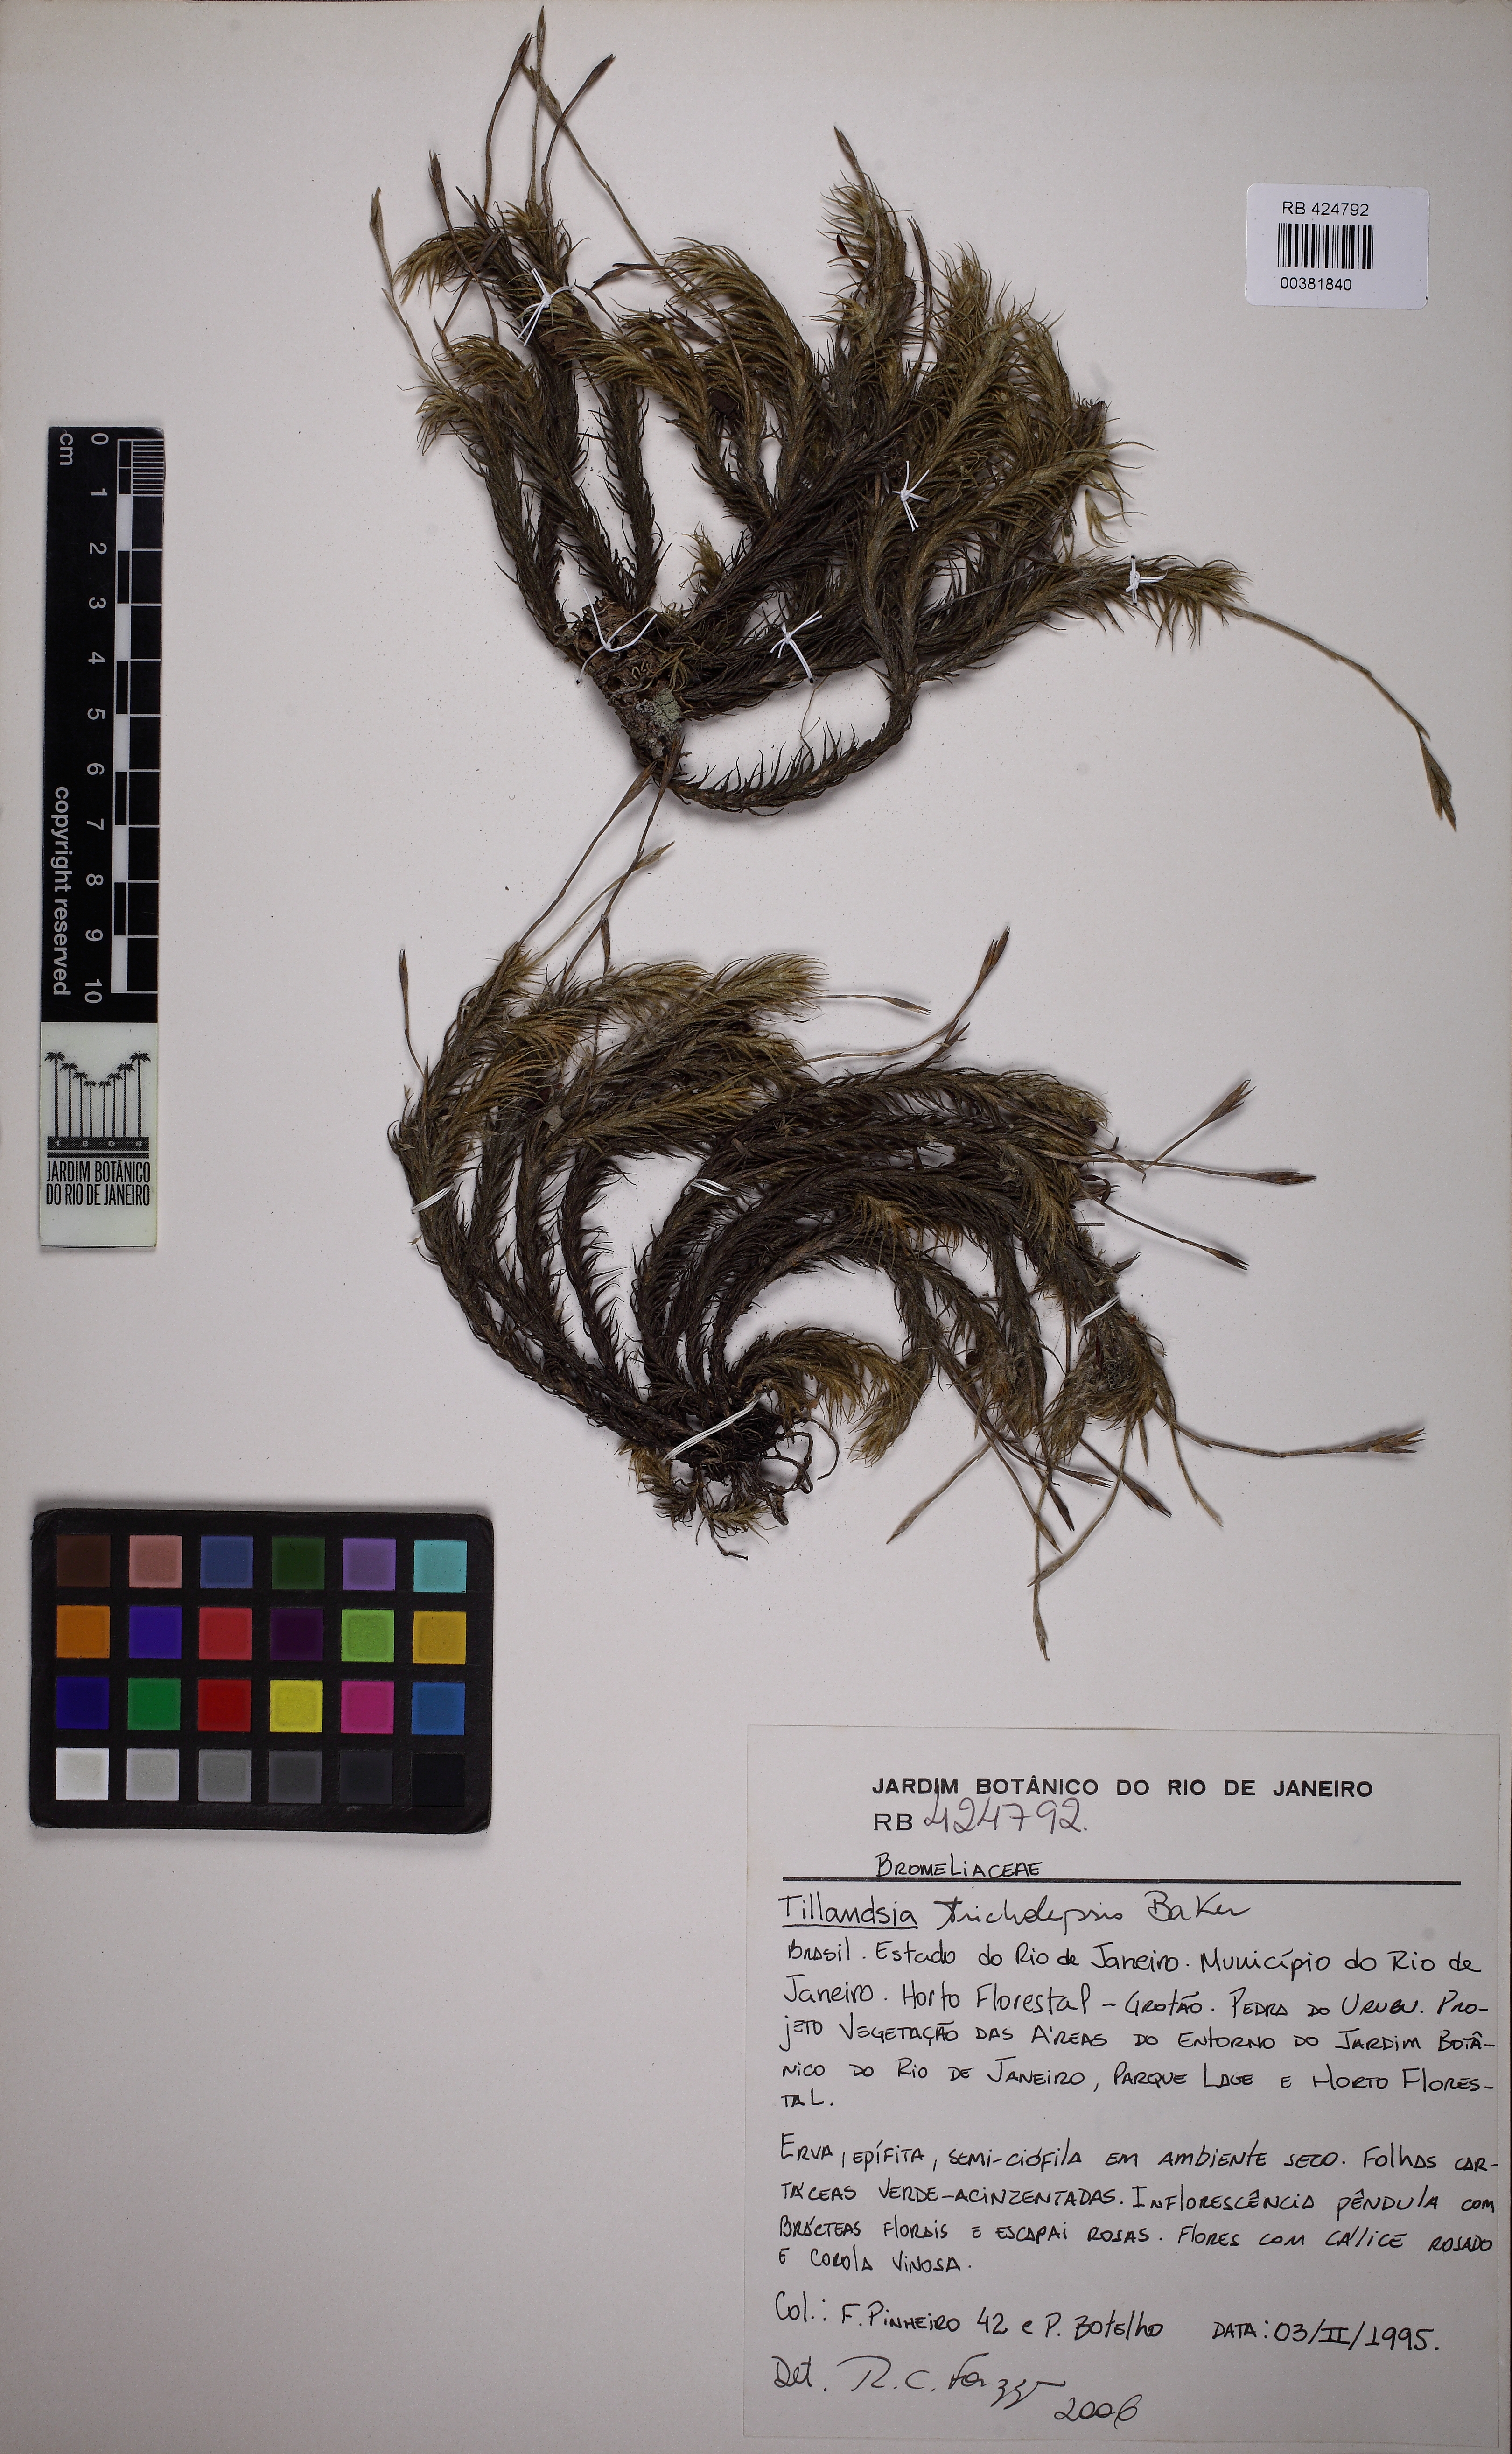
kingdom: Plantae
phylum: Tracheophyta
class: Liliopsida
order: Poales
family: Bromeliaceae
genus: Tillandsia
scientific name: Tillandsia tricholepis
